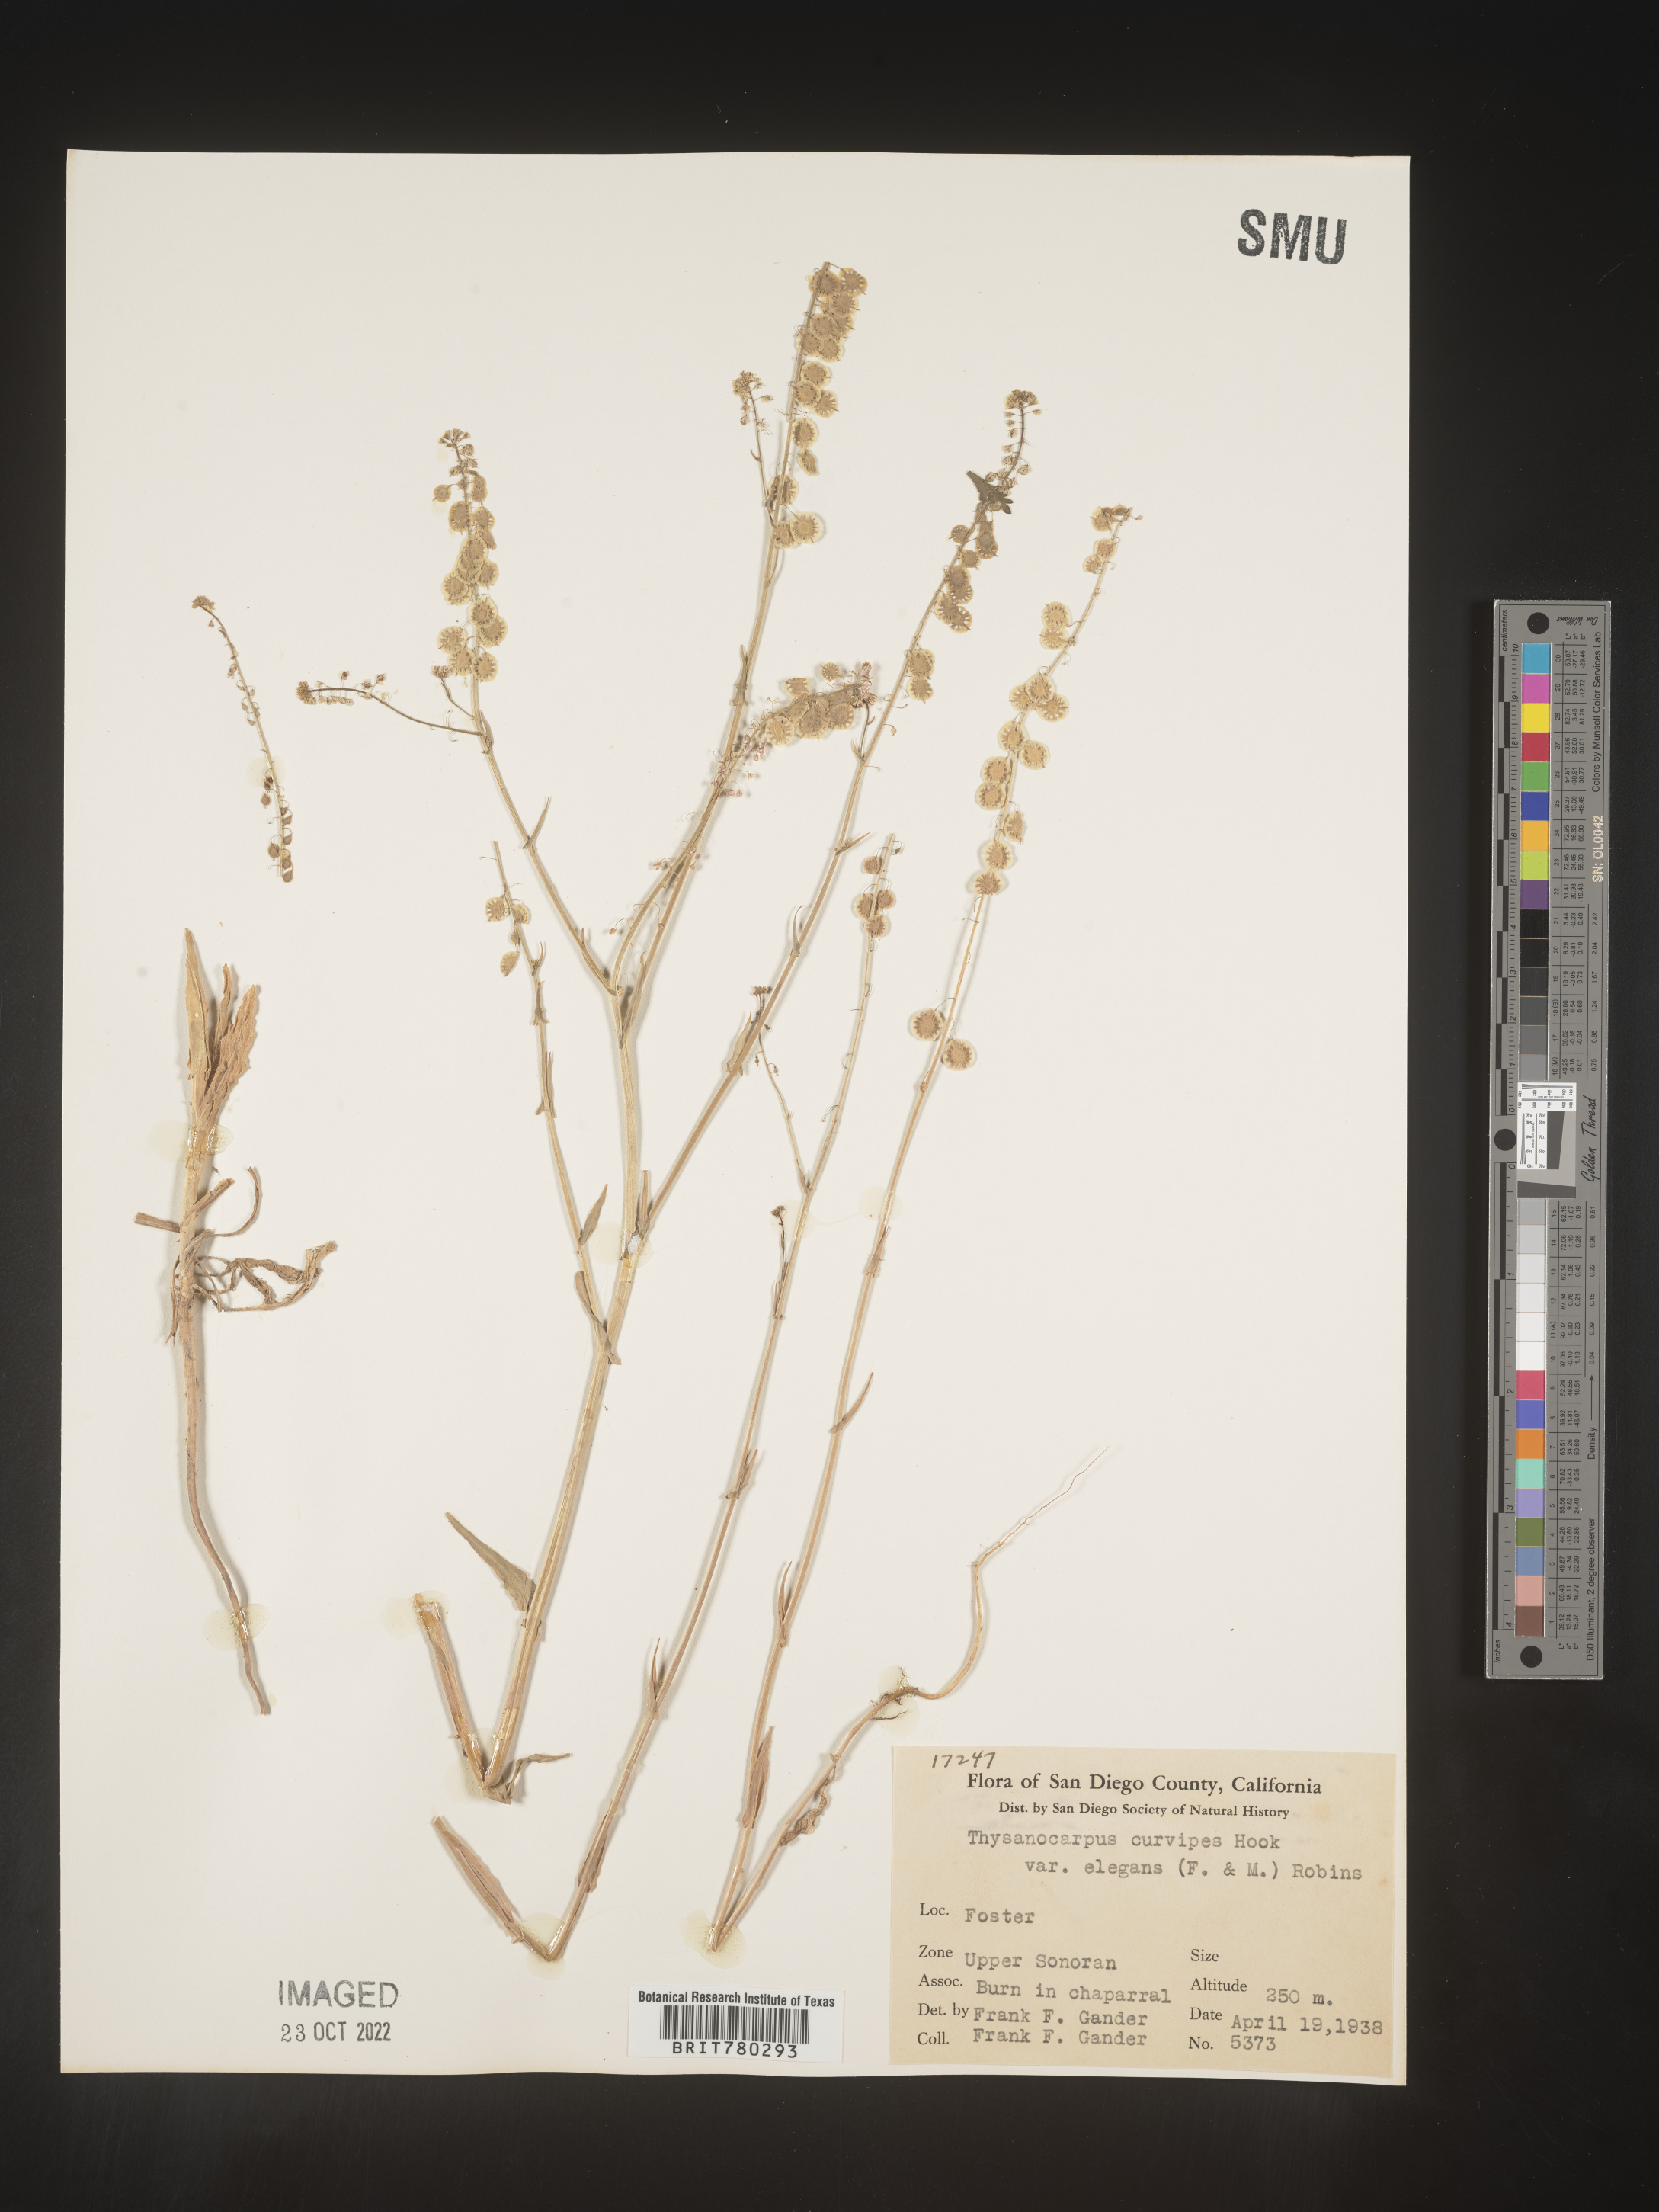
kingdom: Plantae
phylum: Tracheophyta
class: Magnoliopsida
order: Brassicales
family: Brassicaceae
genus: Thysanocarpus
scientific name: Thysanocarpus
